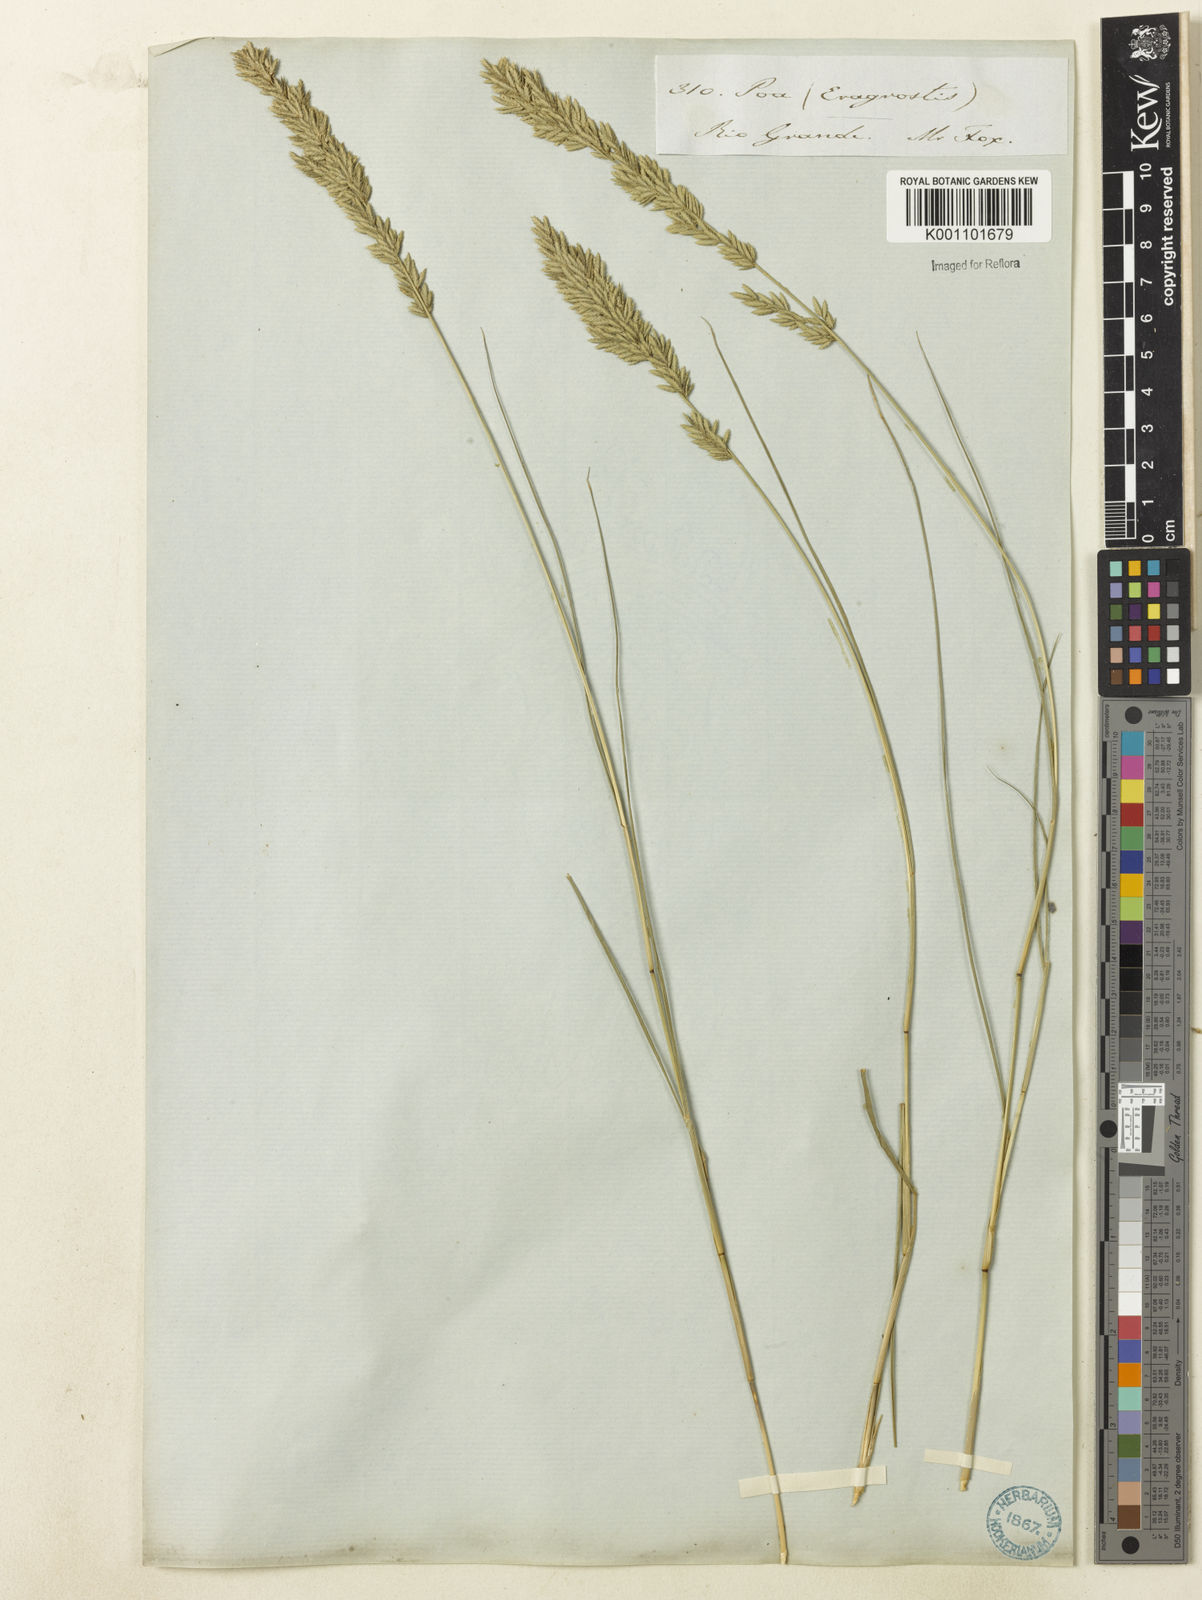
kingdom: Plantae
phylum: Tracheophyta
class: Liliopsida
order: Poales
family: Poaceae
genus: Eragrostis
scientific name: Eragrostis cataclasta
